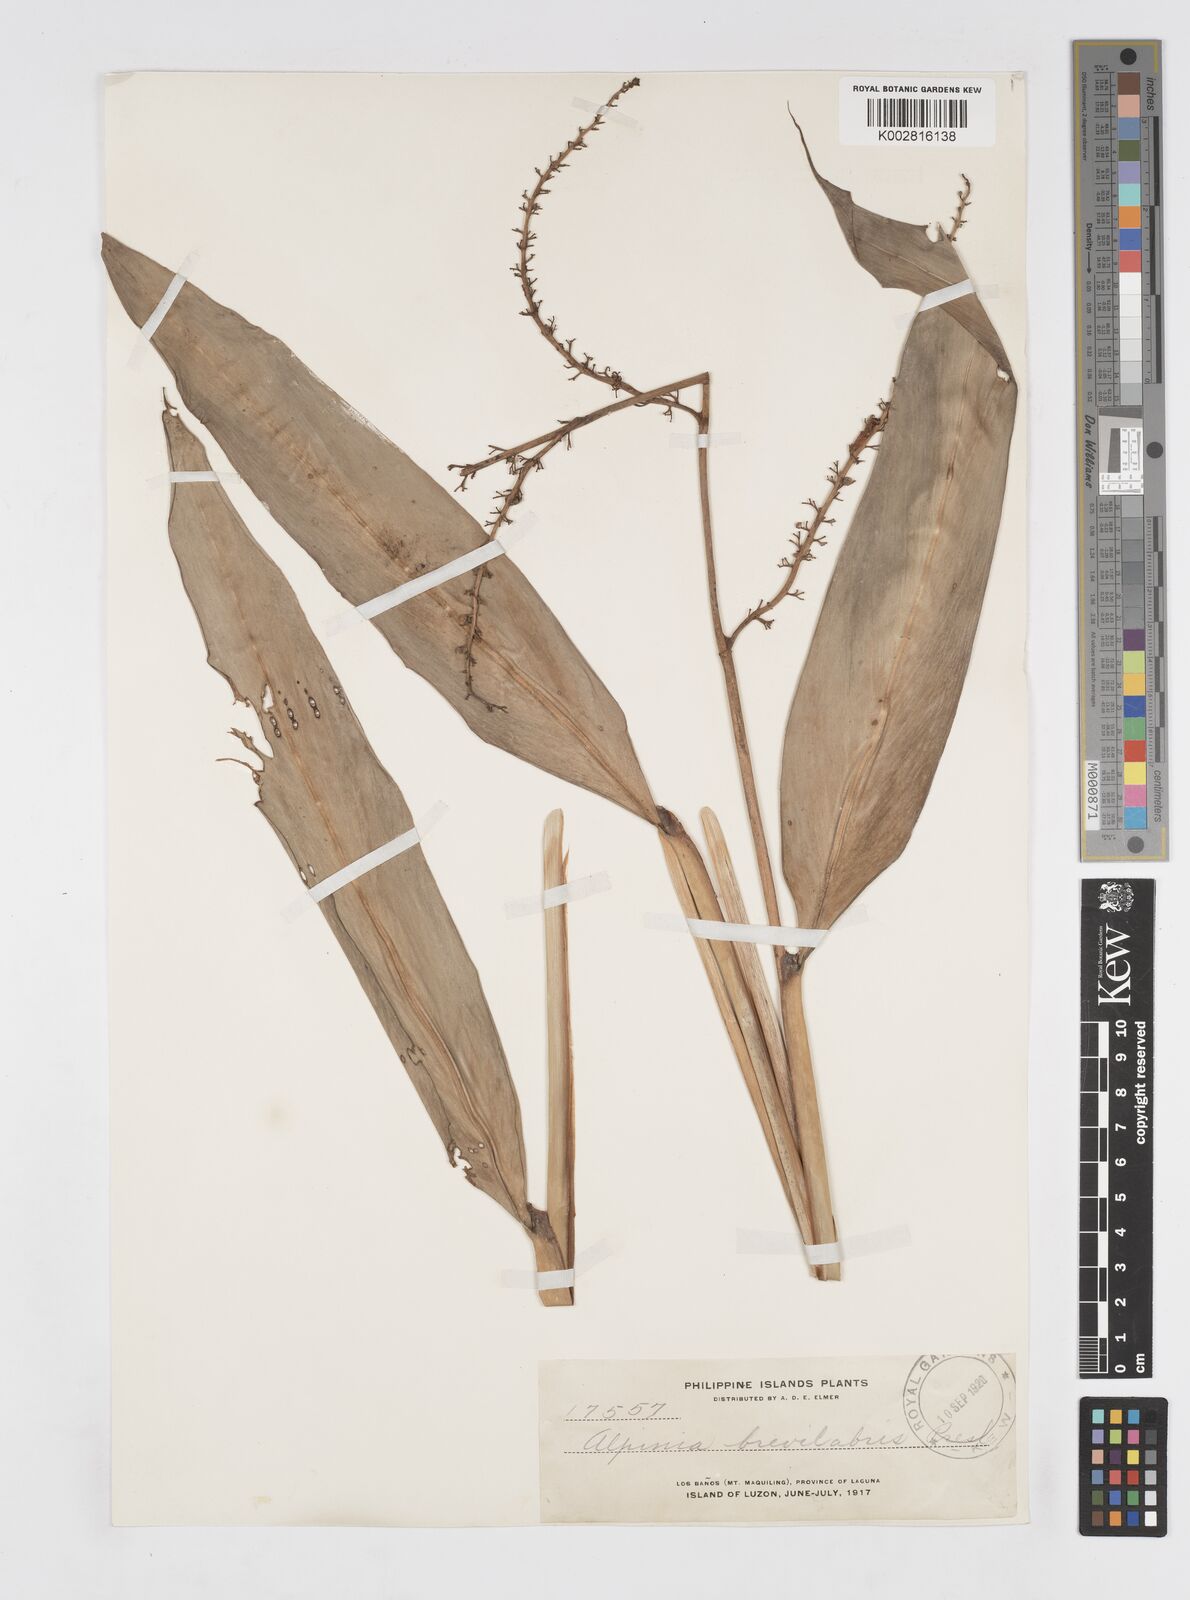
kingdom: Plantae
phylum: Tracheophyta
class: Liliopsida
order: Zingiberales
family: Zingiberaceae
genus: Alpinia
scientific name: Alpinia brevilabris
